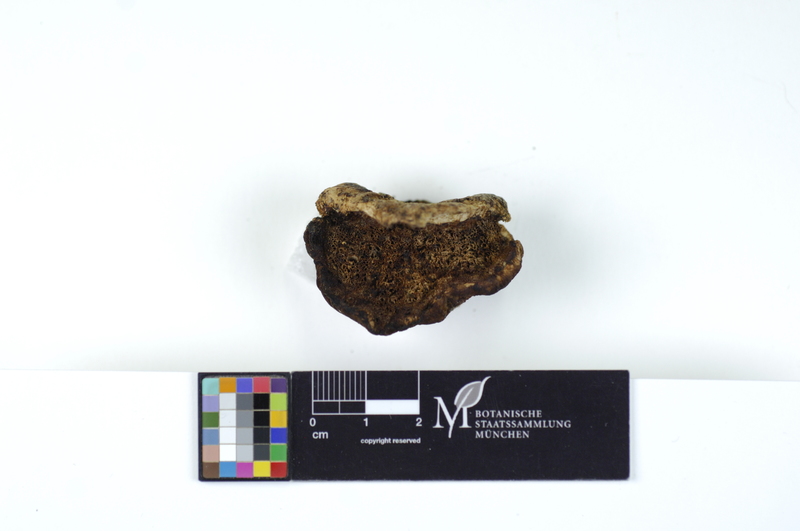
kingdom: Fungi
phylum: Basidiomycota
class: Agaricomycetes
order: Polyporales
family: Dacryobolaceae
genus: Amylocystis
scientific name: Amylocystis lapponica
